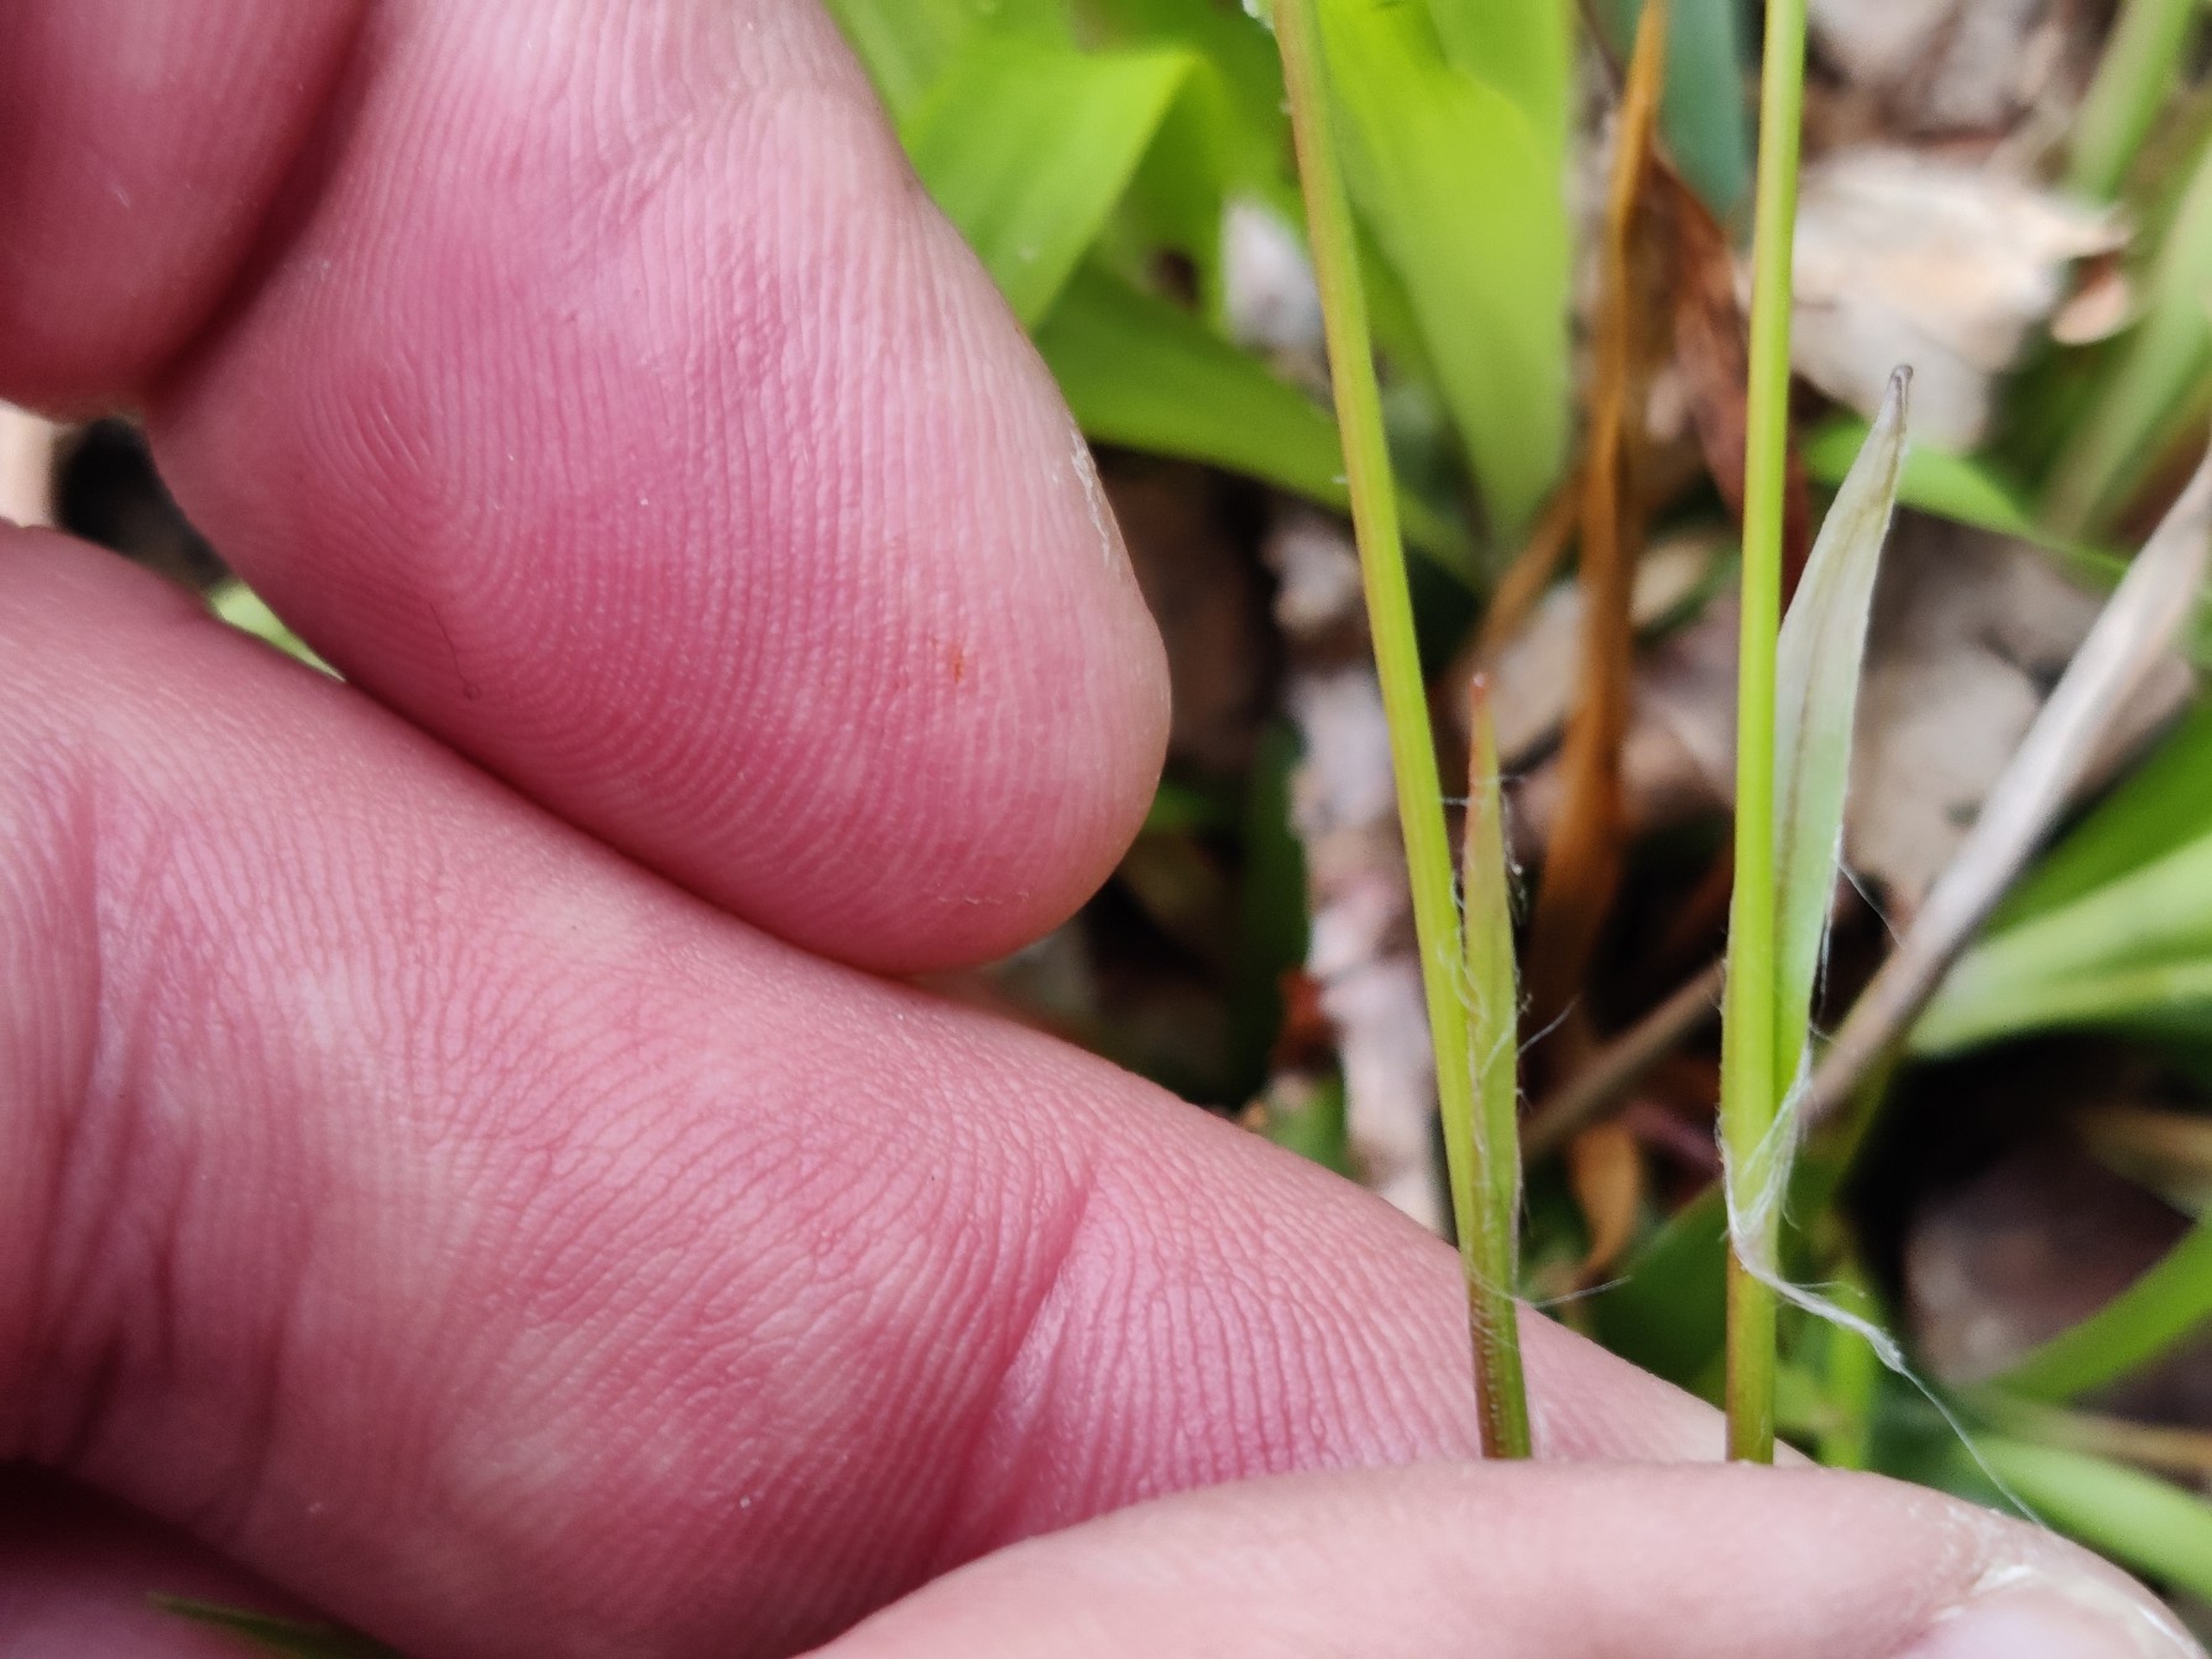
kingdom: Plantae
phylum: Tracheophyta
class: Liliopsida
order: Poales
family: Juncaceae
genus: Luzula
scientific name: Luzula pilosa
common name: Håret frytle
